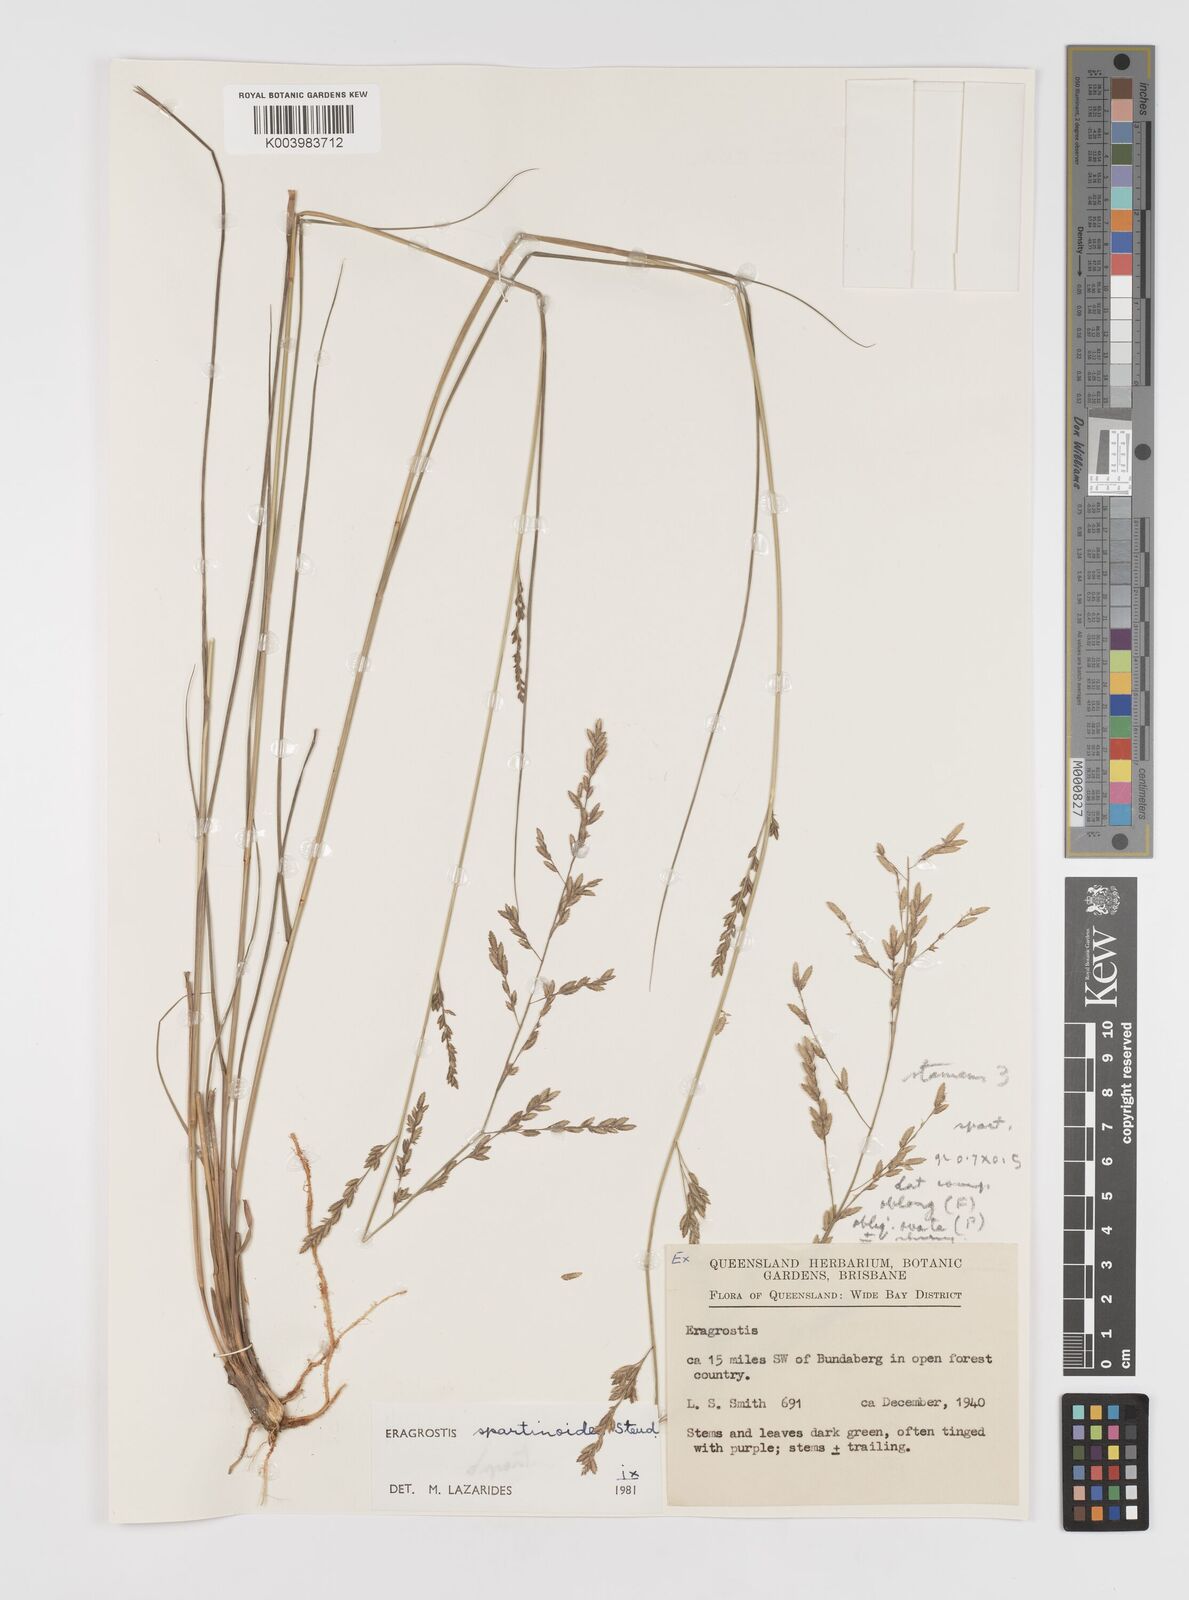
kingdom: Plantae
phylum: Tracheophyta
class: Liliopsida
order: Poales
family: Poaceae
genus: Eragrostis
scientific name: Eragrostis brownii
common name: Lovegrass
